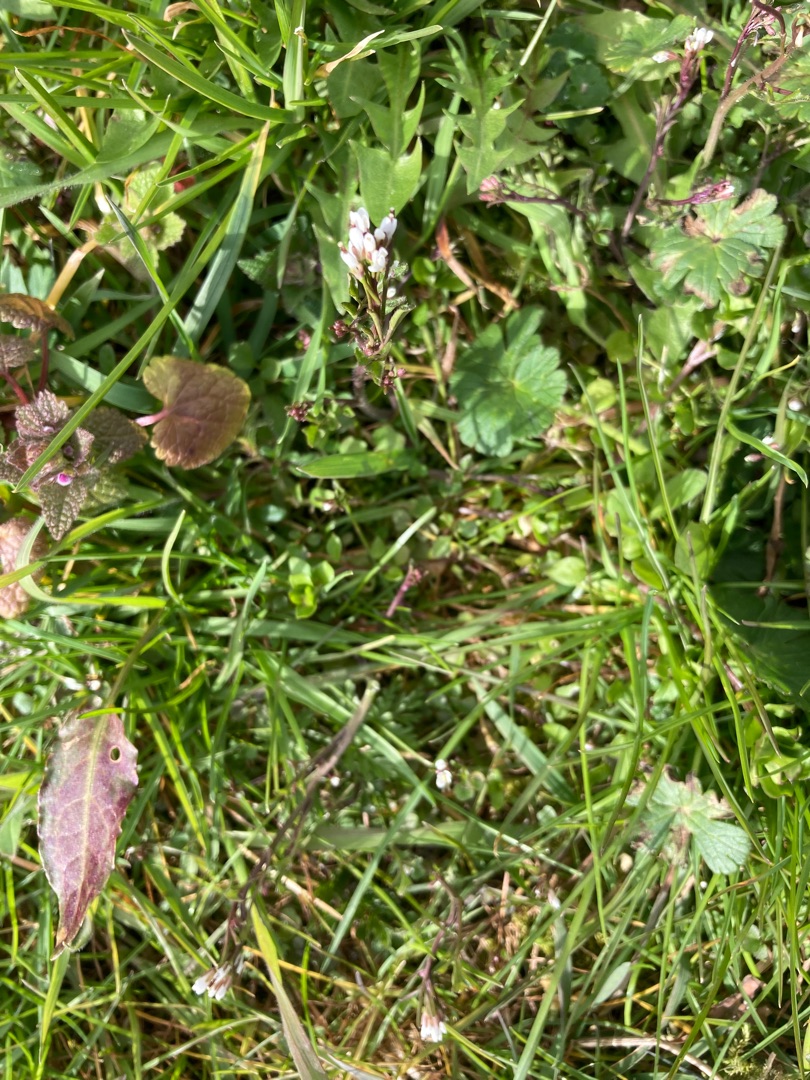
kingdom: Plantae
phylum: Tracheophyta
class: Magnoliopsida
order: Brassicales
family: Brassicaceae
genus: Cardamine
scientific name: Cardamine hirsuta
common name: Roset-springklap
